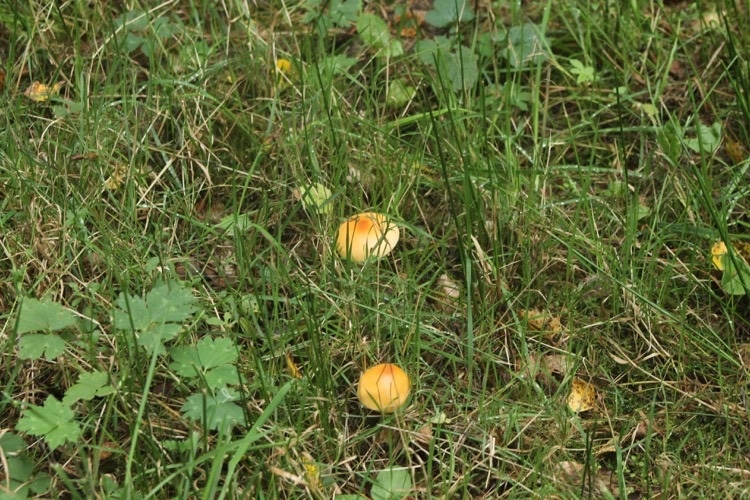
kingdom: Fungi
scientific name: Fungi
